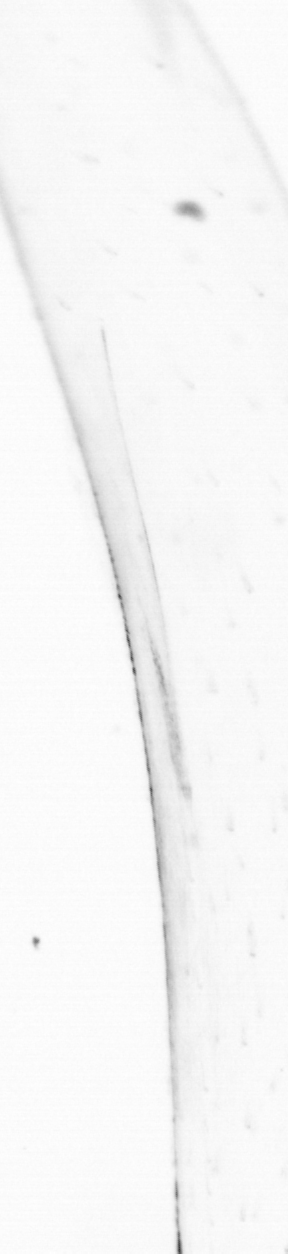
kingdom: Animalia
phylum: Chaetognatha
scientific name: Chaetognatha
